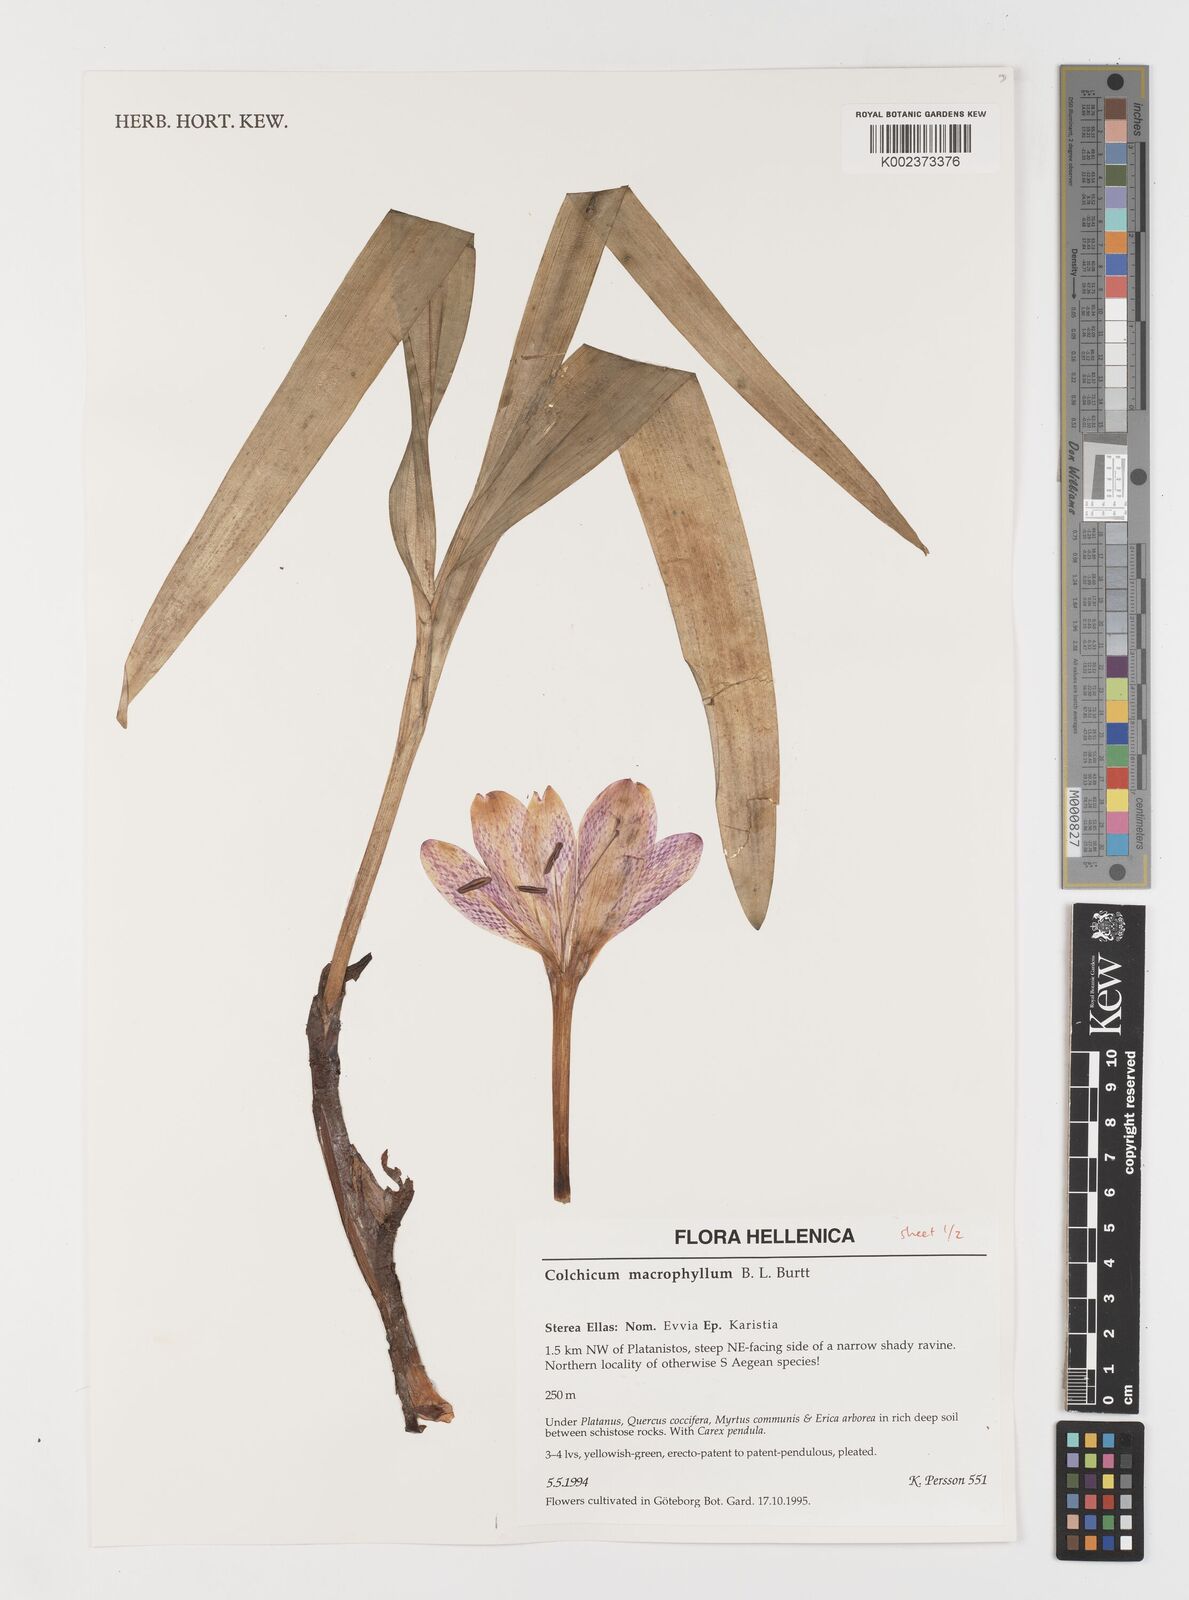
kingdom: Plantae
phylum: Tracheophyta
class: Liliopsida
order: Liliales
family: Colchicaceae
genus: Colchicum
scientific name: Colchicum macrophyllum
